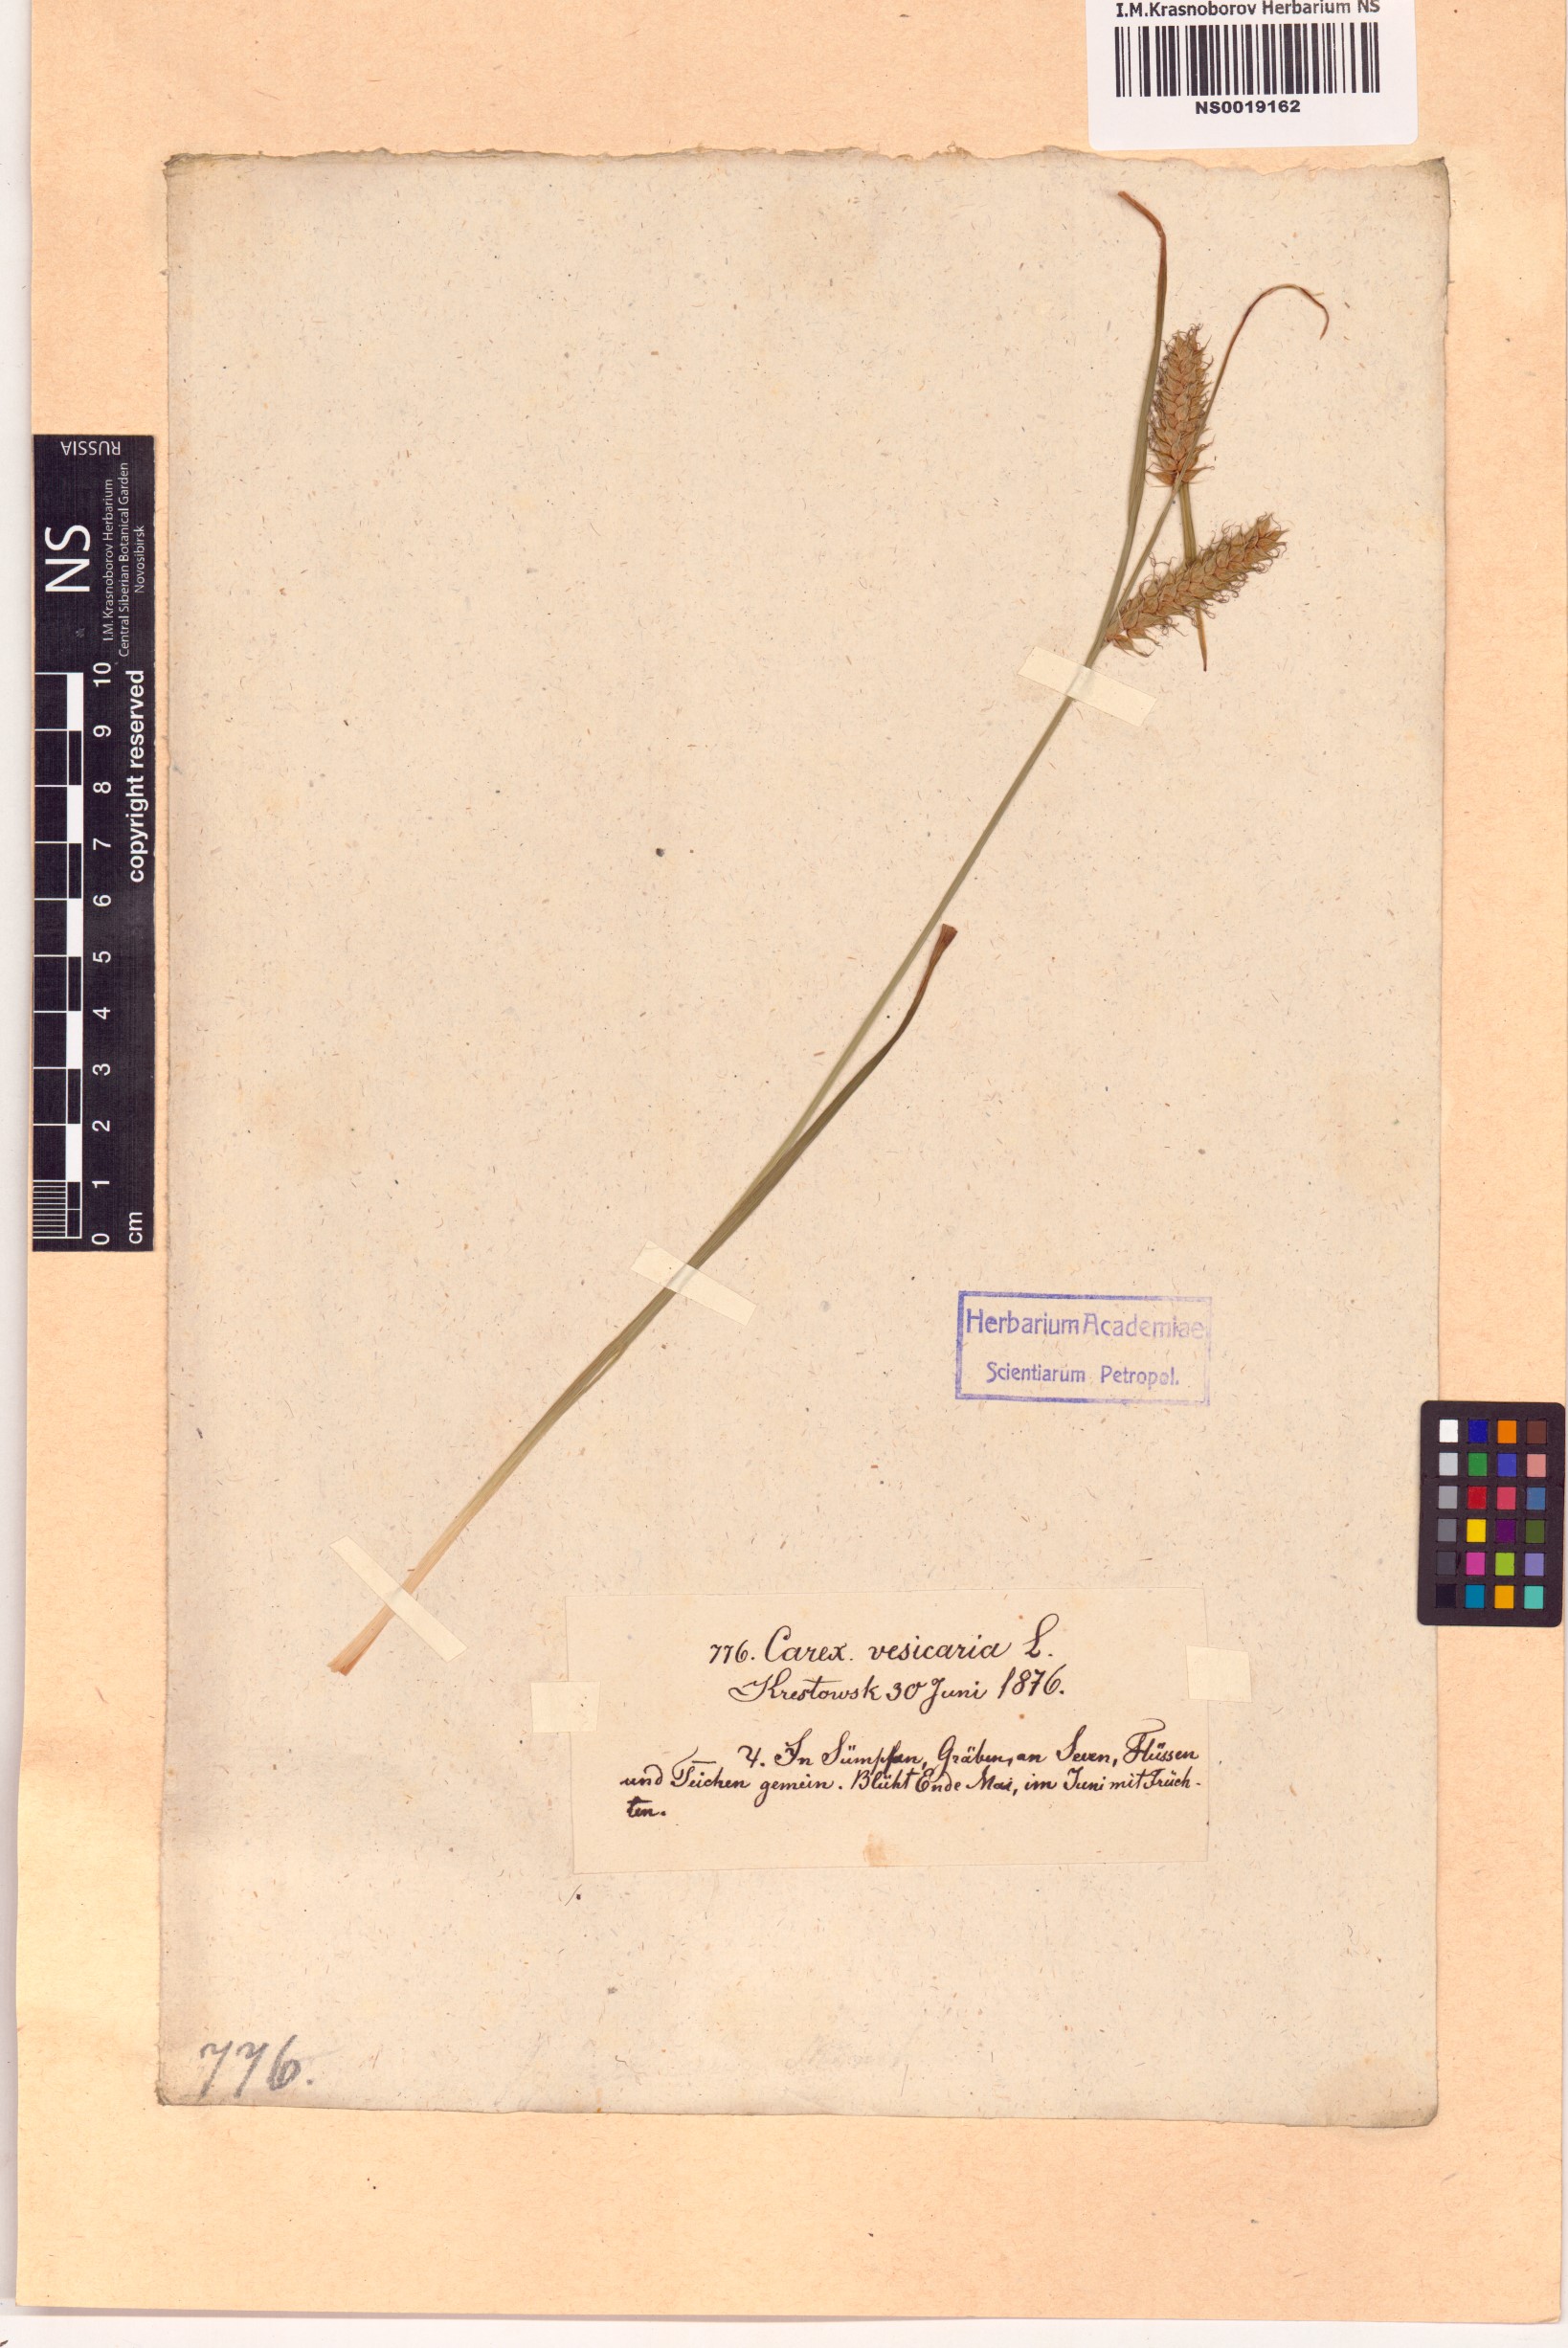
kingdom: Plantae
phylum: Tracheophyta
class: Liliopsida
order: Poales
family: Cyperaceae
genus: Carex
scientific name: Carex vesicaria
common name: Bladder-sedge
